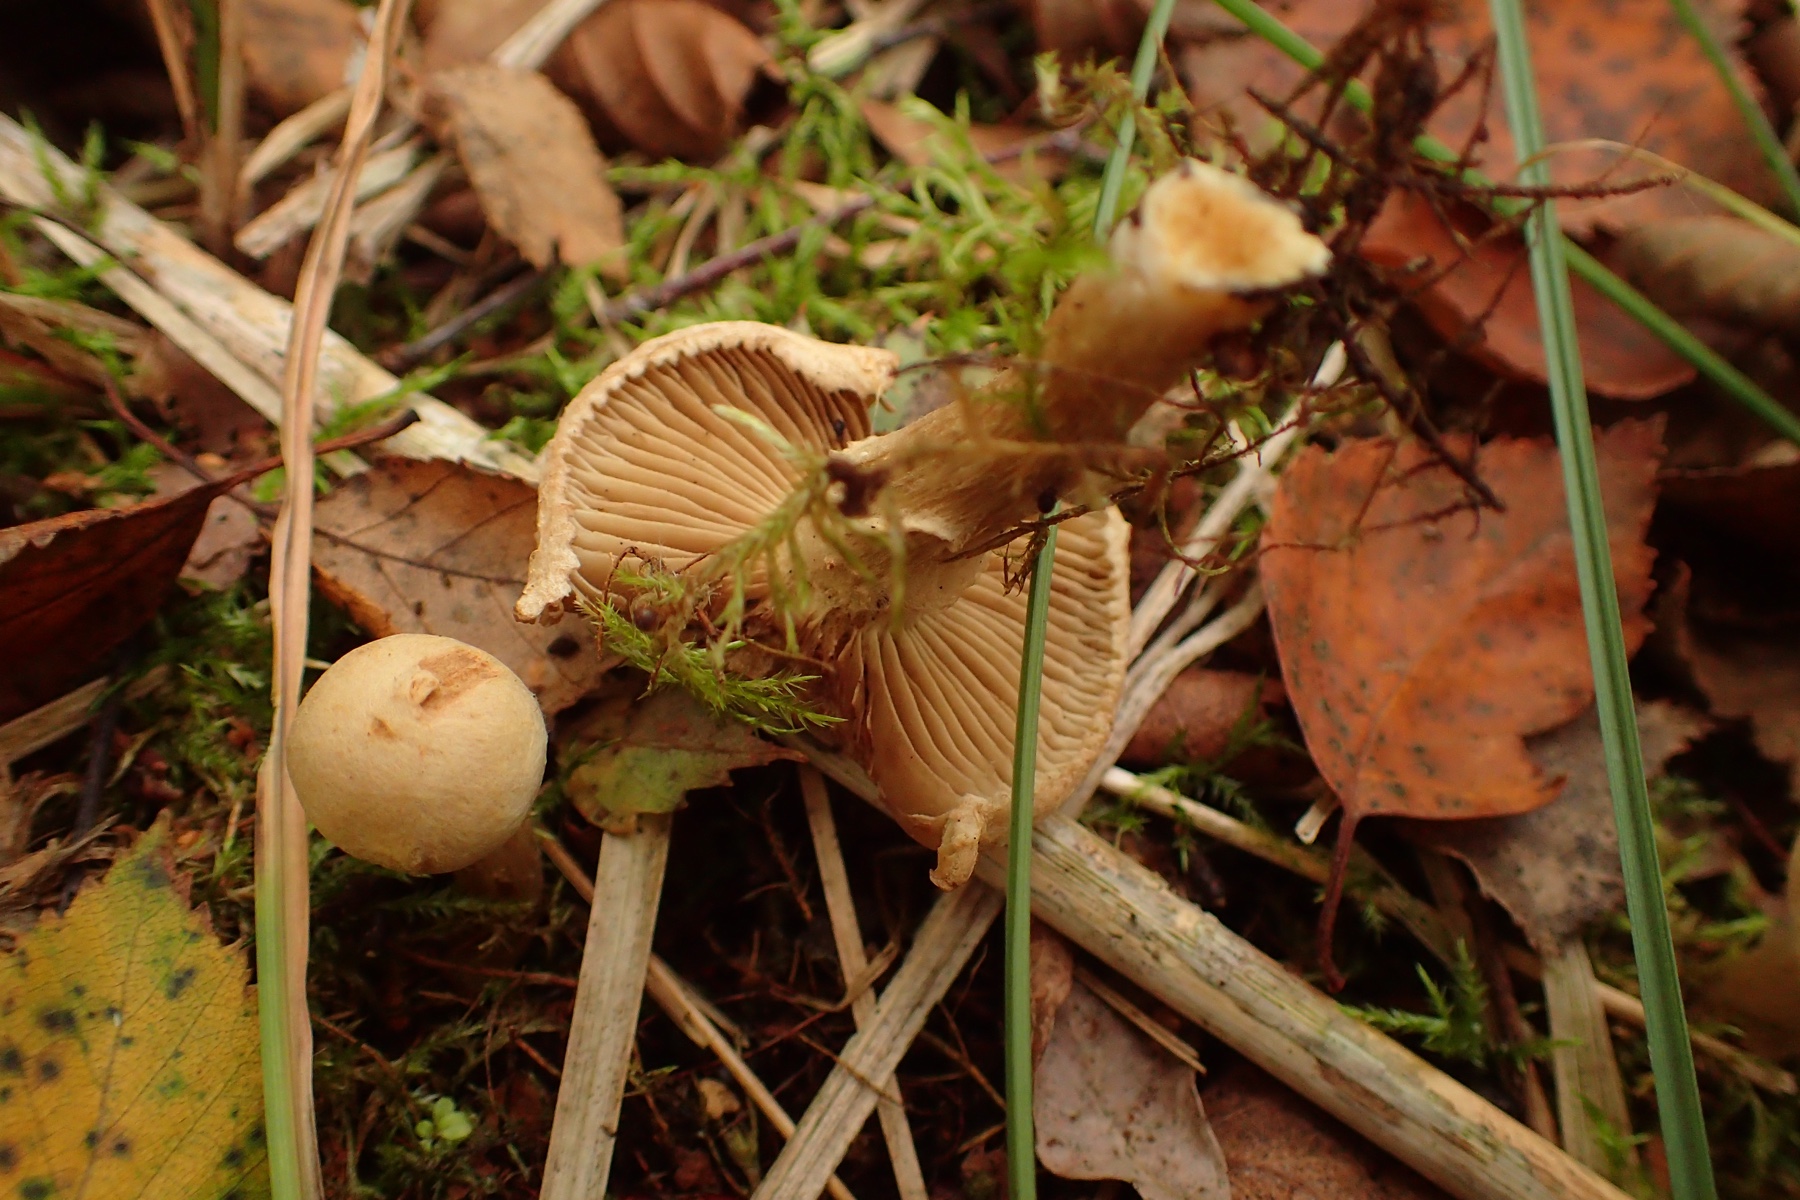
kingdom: Fungi
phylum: Basidiomycota
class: Agaricomycetes
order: Agaricales
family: Inocybaceae
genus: Mallocybe
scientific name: Mallocybe agardhii
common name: Agardhs trævlhat
